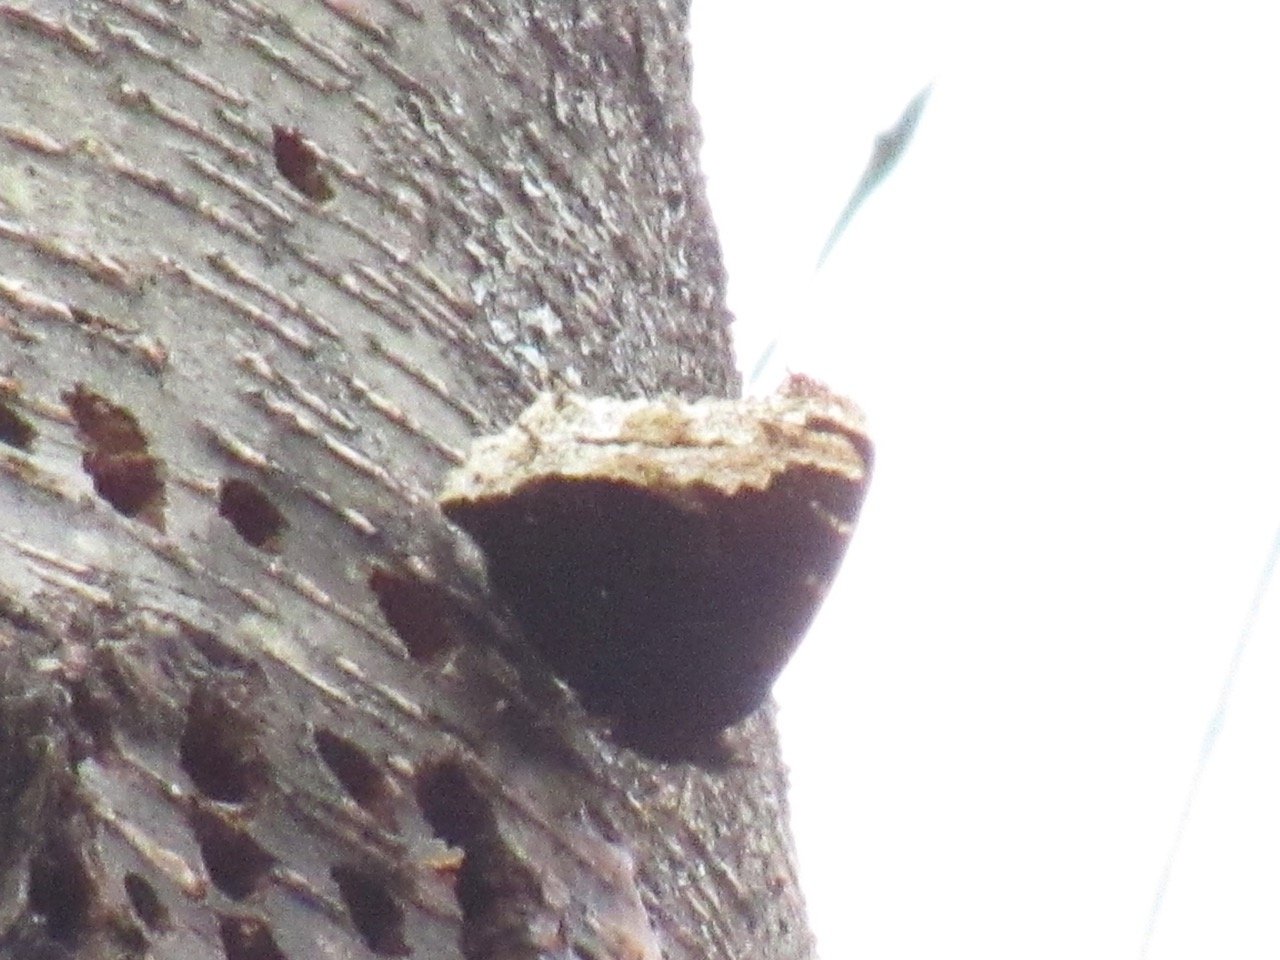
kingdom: Animalia
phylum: Arthropoda
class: Insecta
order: Lepidoptera
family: Nymphalidae
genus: Nymphalis
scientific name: Nymphalis antiopa
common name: Mourning Cloak
